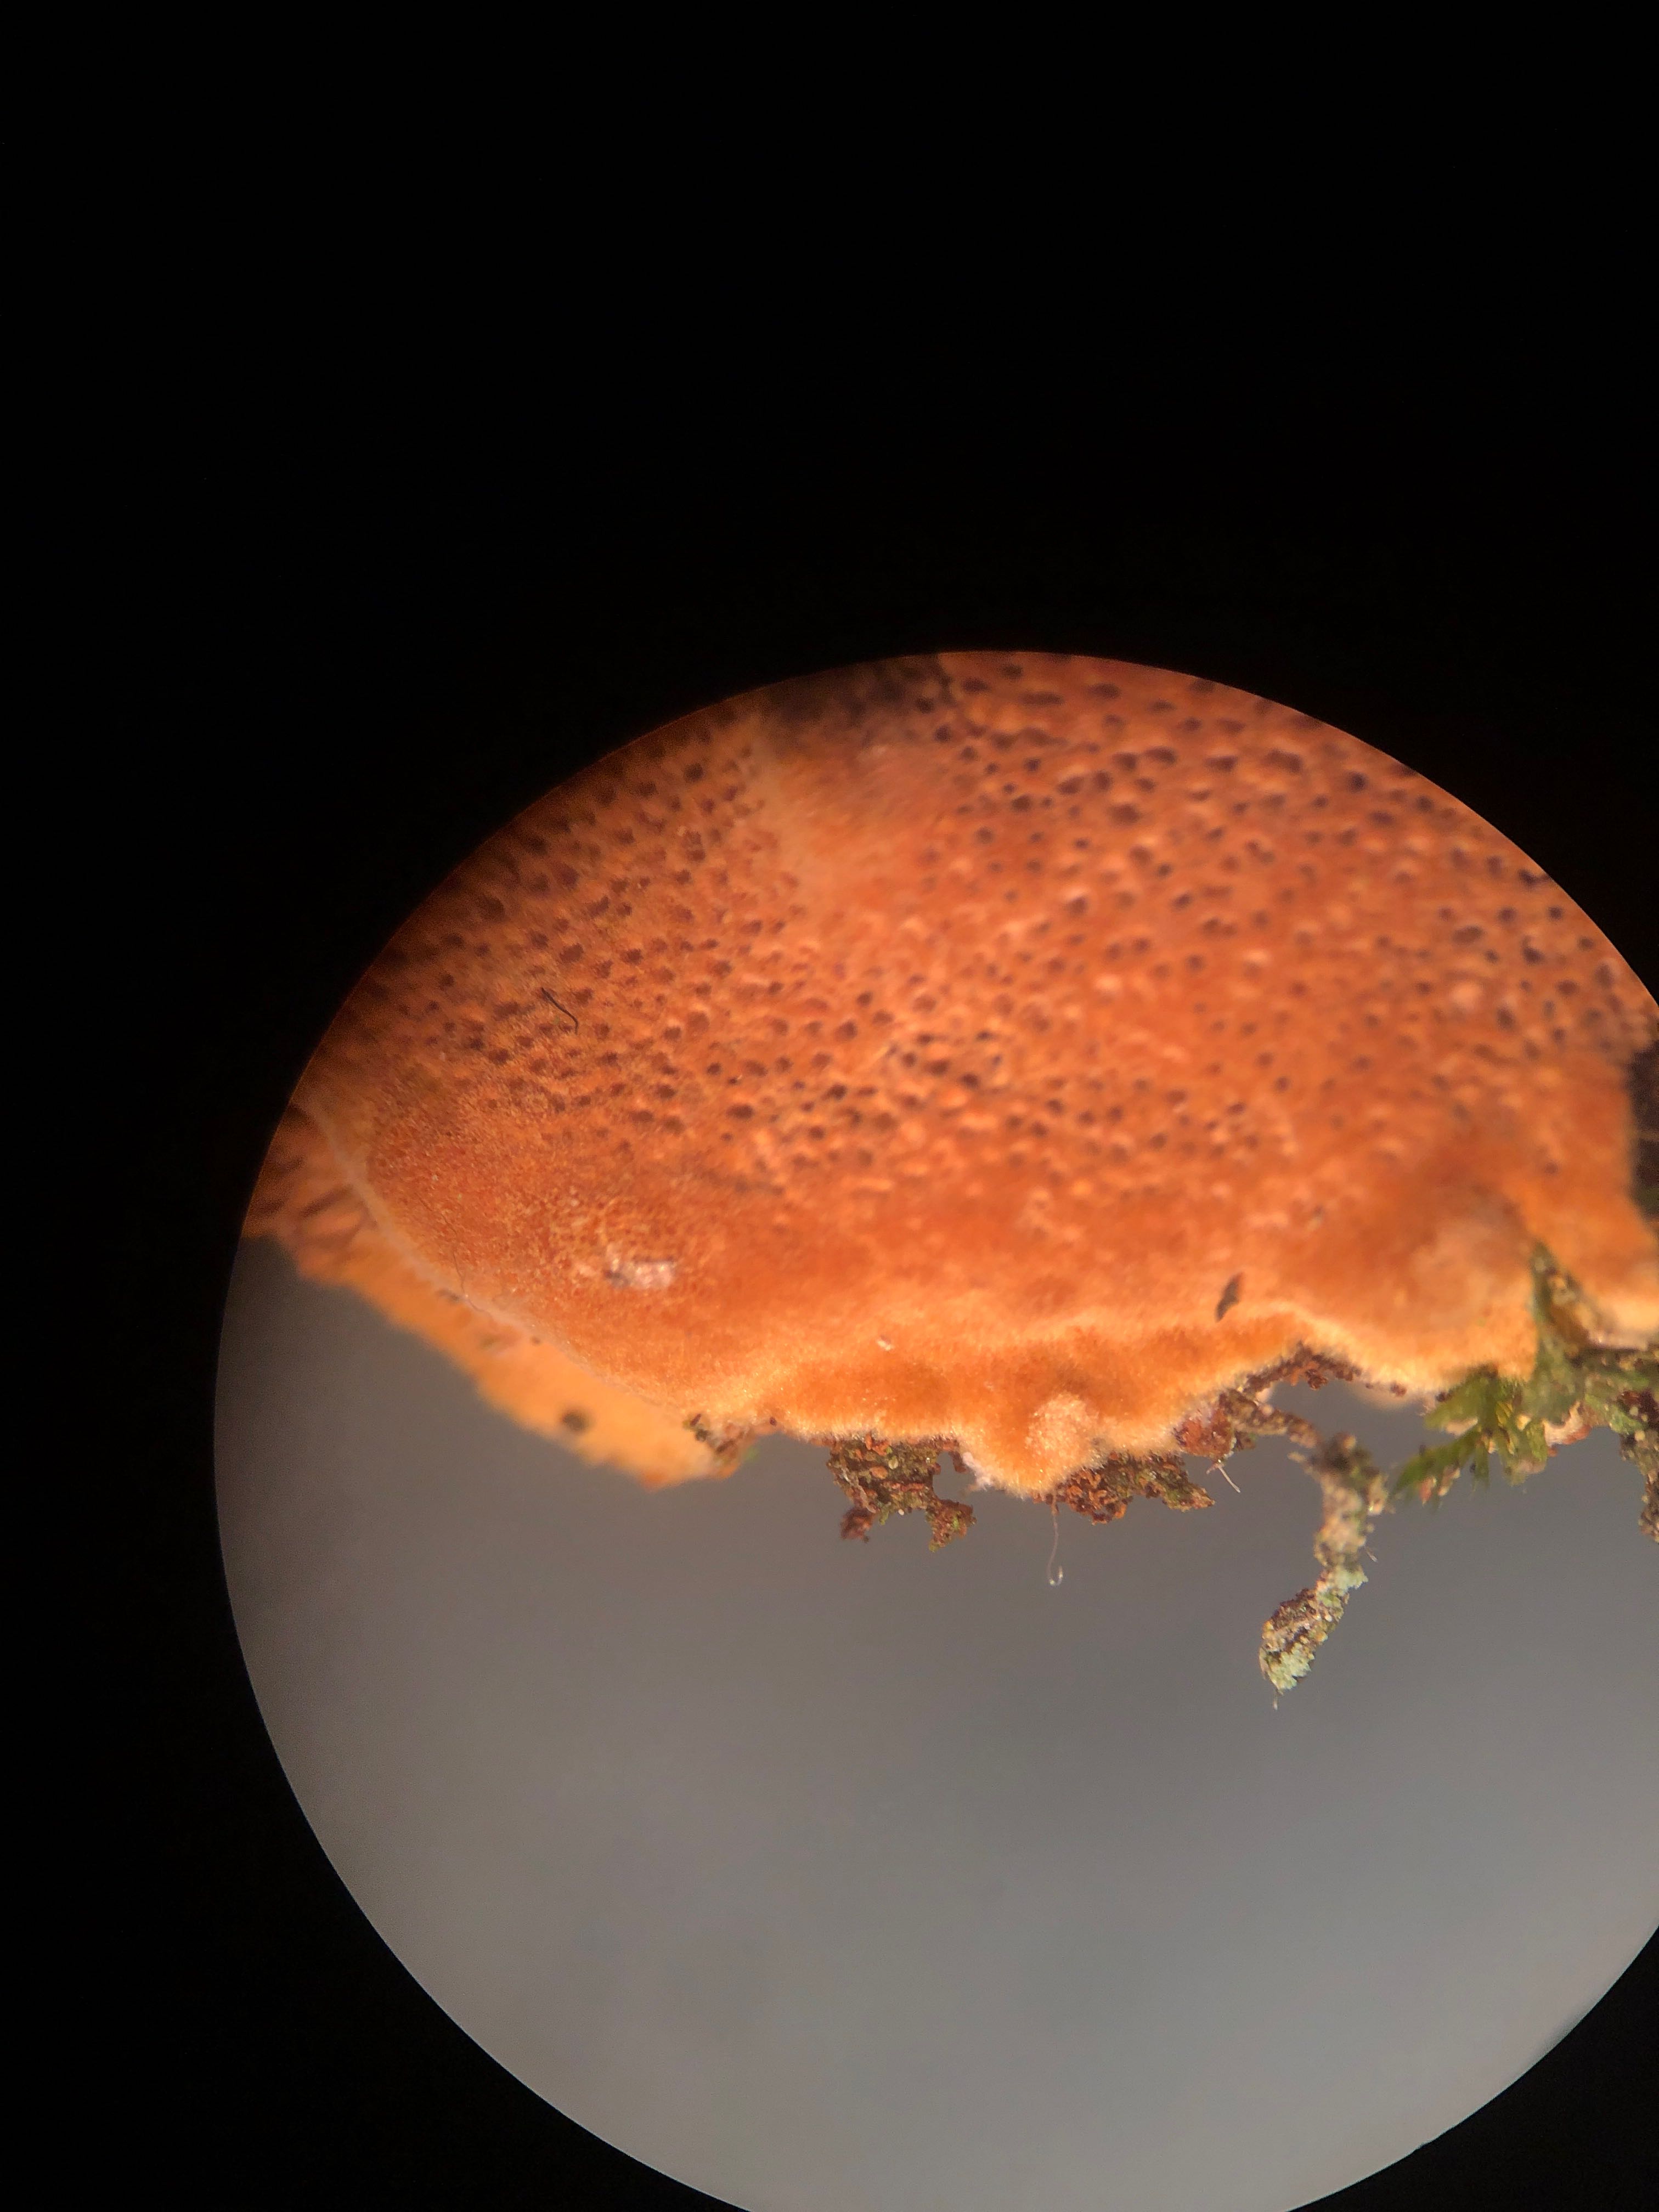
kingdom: Fungi
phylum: Basidiomycota
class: Agaricomycetes
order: Hymenochaetales
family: Hymenochaetaceae
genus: Fuscoporia
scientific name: Fuscoporia ferrea
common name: skorpe-ildporesvamp
